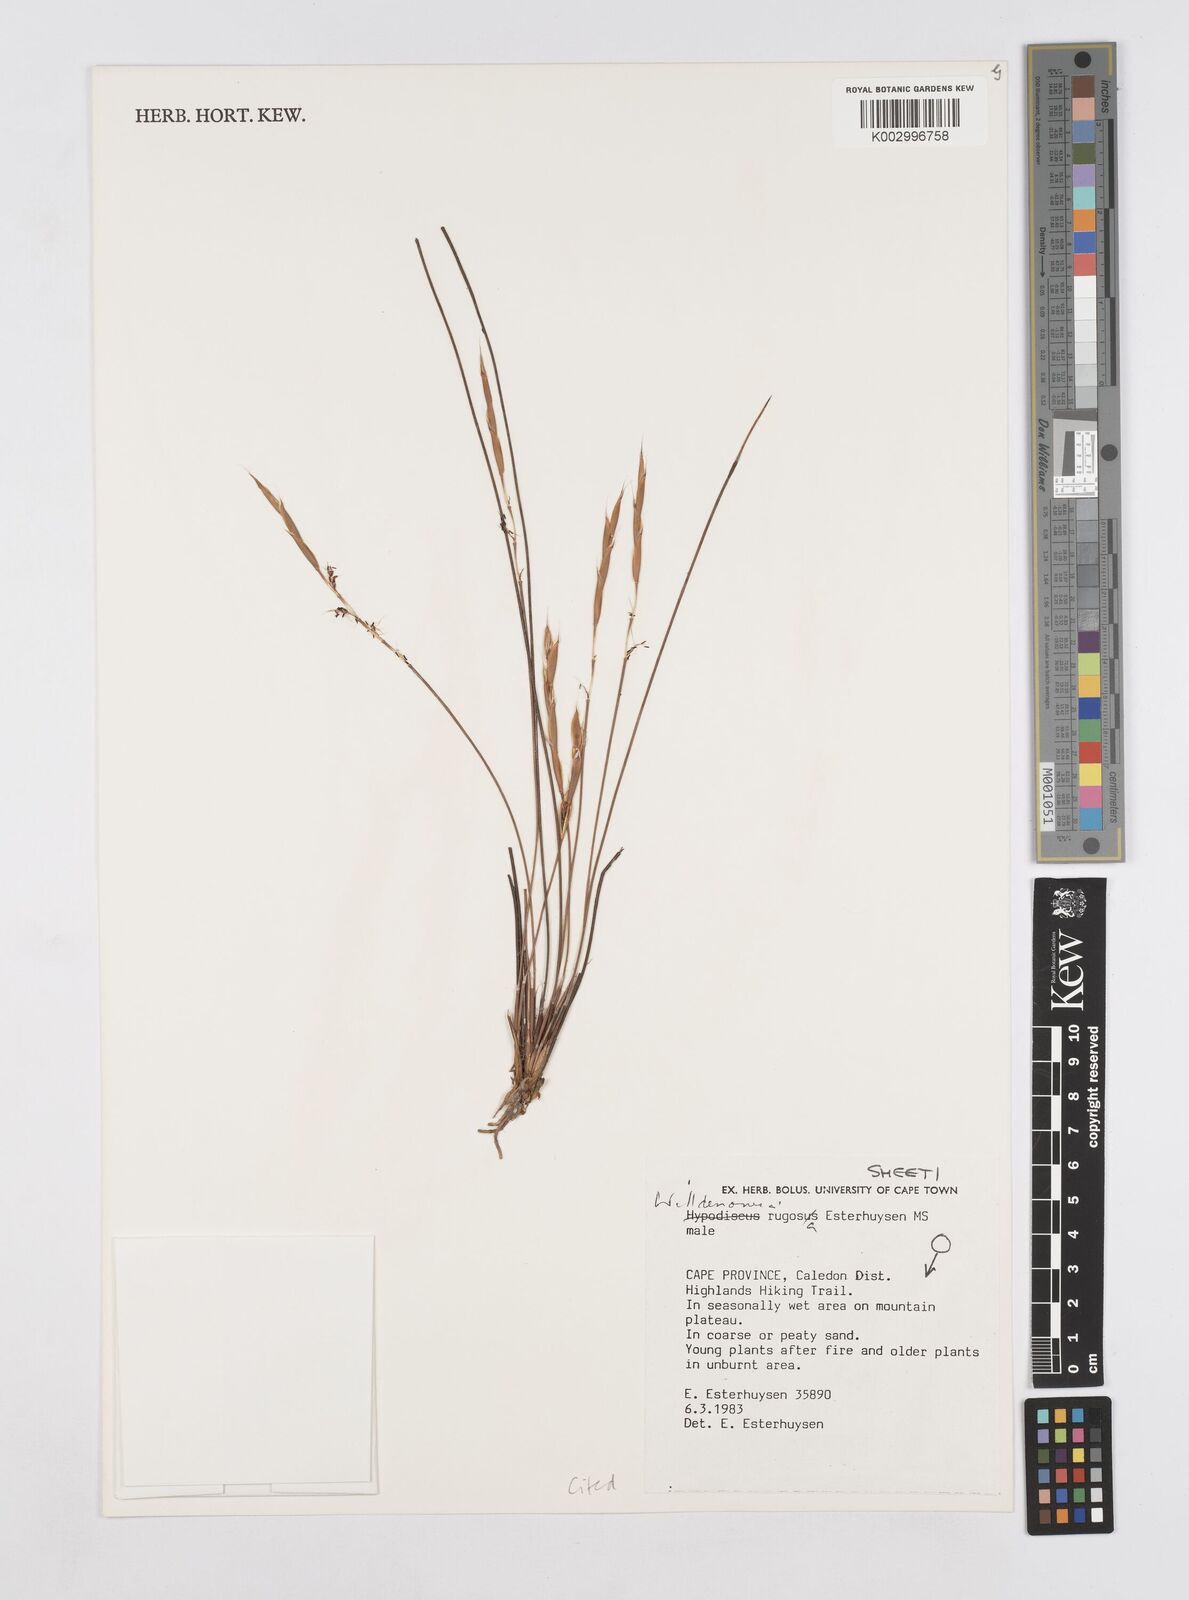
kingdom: Plantae
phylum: Tracheophyta
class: Liliopsida
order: Poales
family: Restionaceae
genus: Willdenowia
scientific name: Willdenowia rugosa
